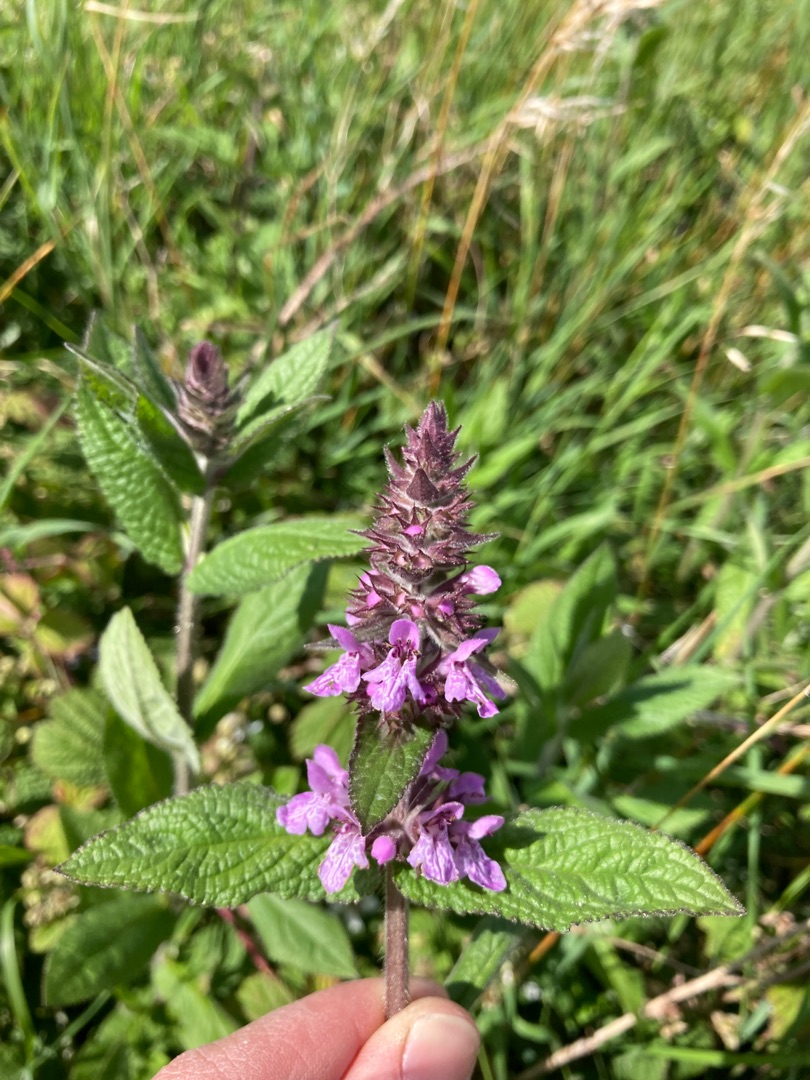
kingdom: Plantae
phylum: Tracheophyta
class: Magnoliopsida
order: Lamiales
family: Lamiaceae
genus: Stachys
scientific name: Stachys palustris
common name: Kær-galtetand
